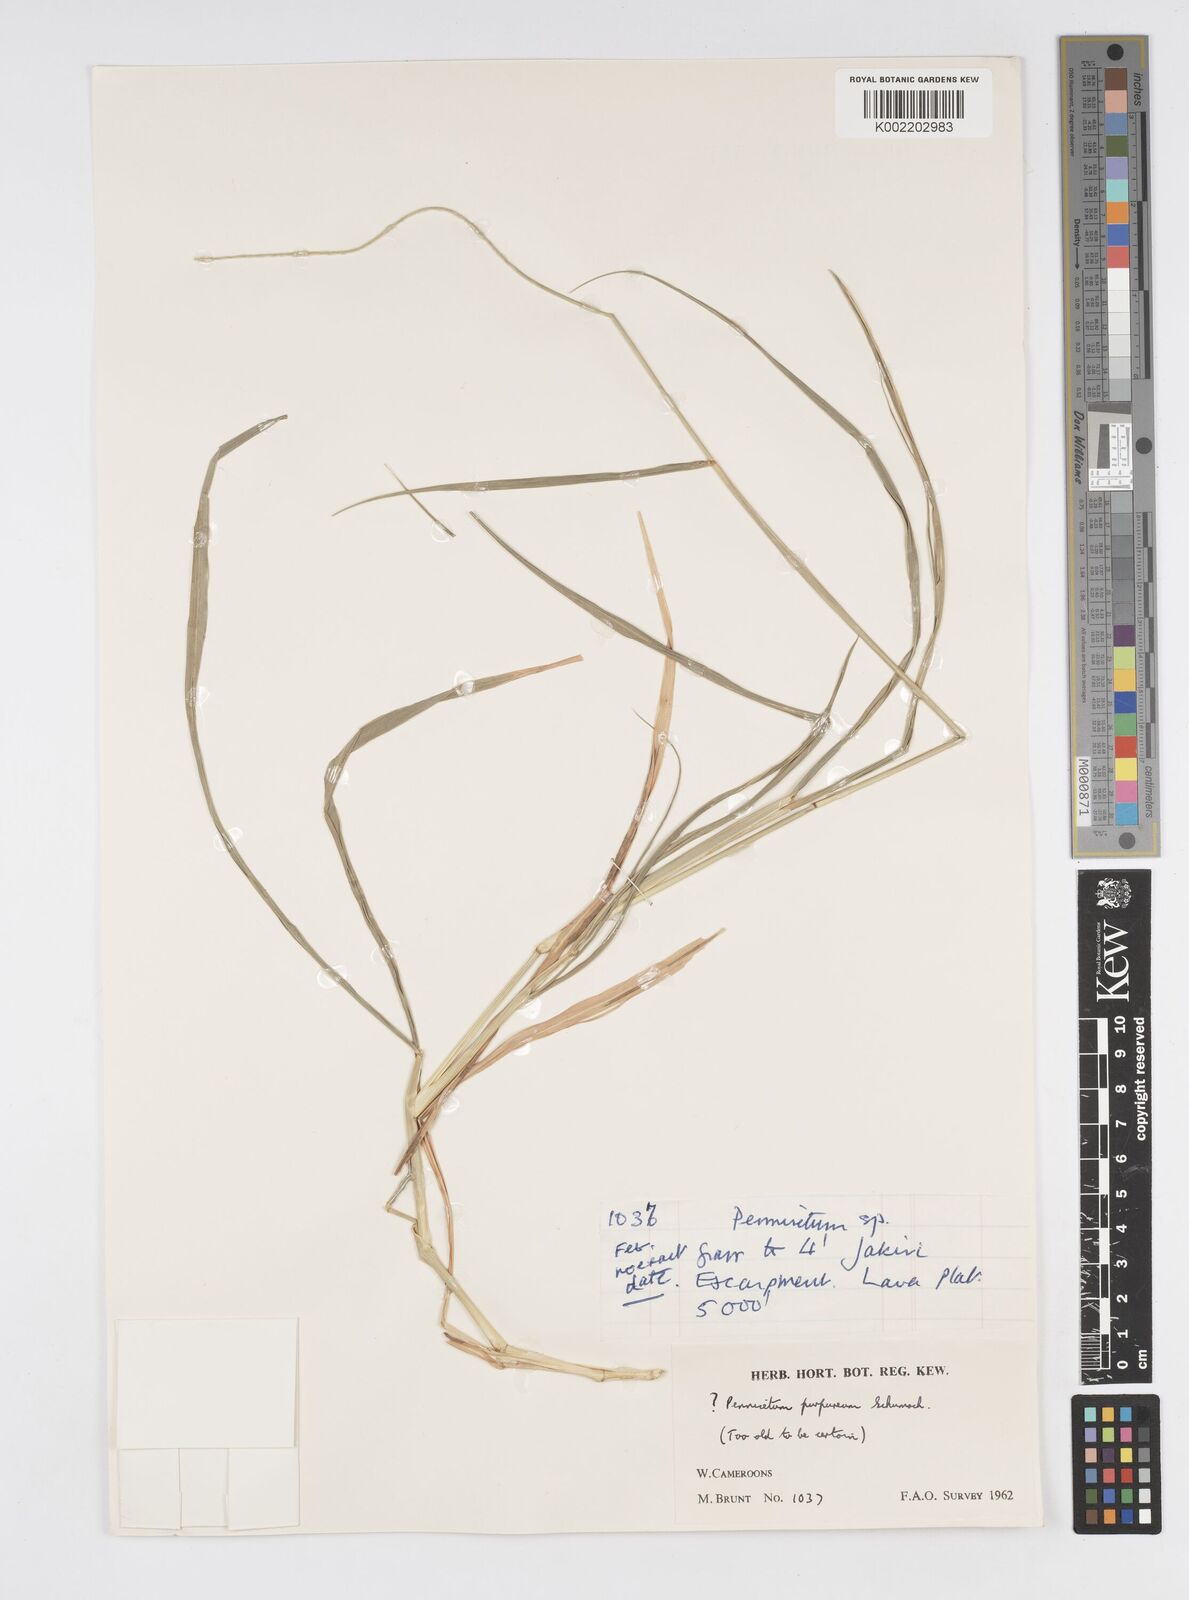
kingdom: Plantae
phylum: Tracheophyta
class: Liliopsida
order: Poales
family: Poaceae
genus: Cenchrus
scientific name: Cenchrus purpureus
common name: Elephant grass
